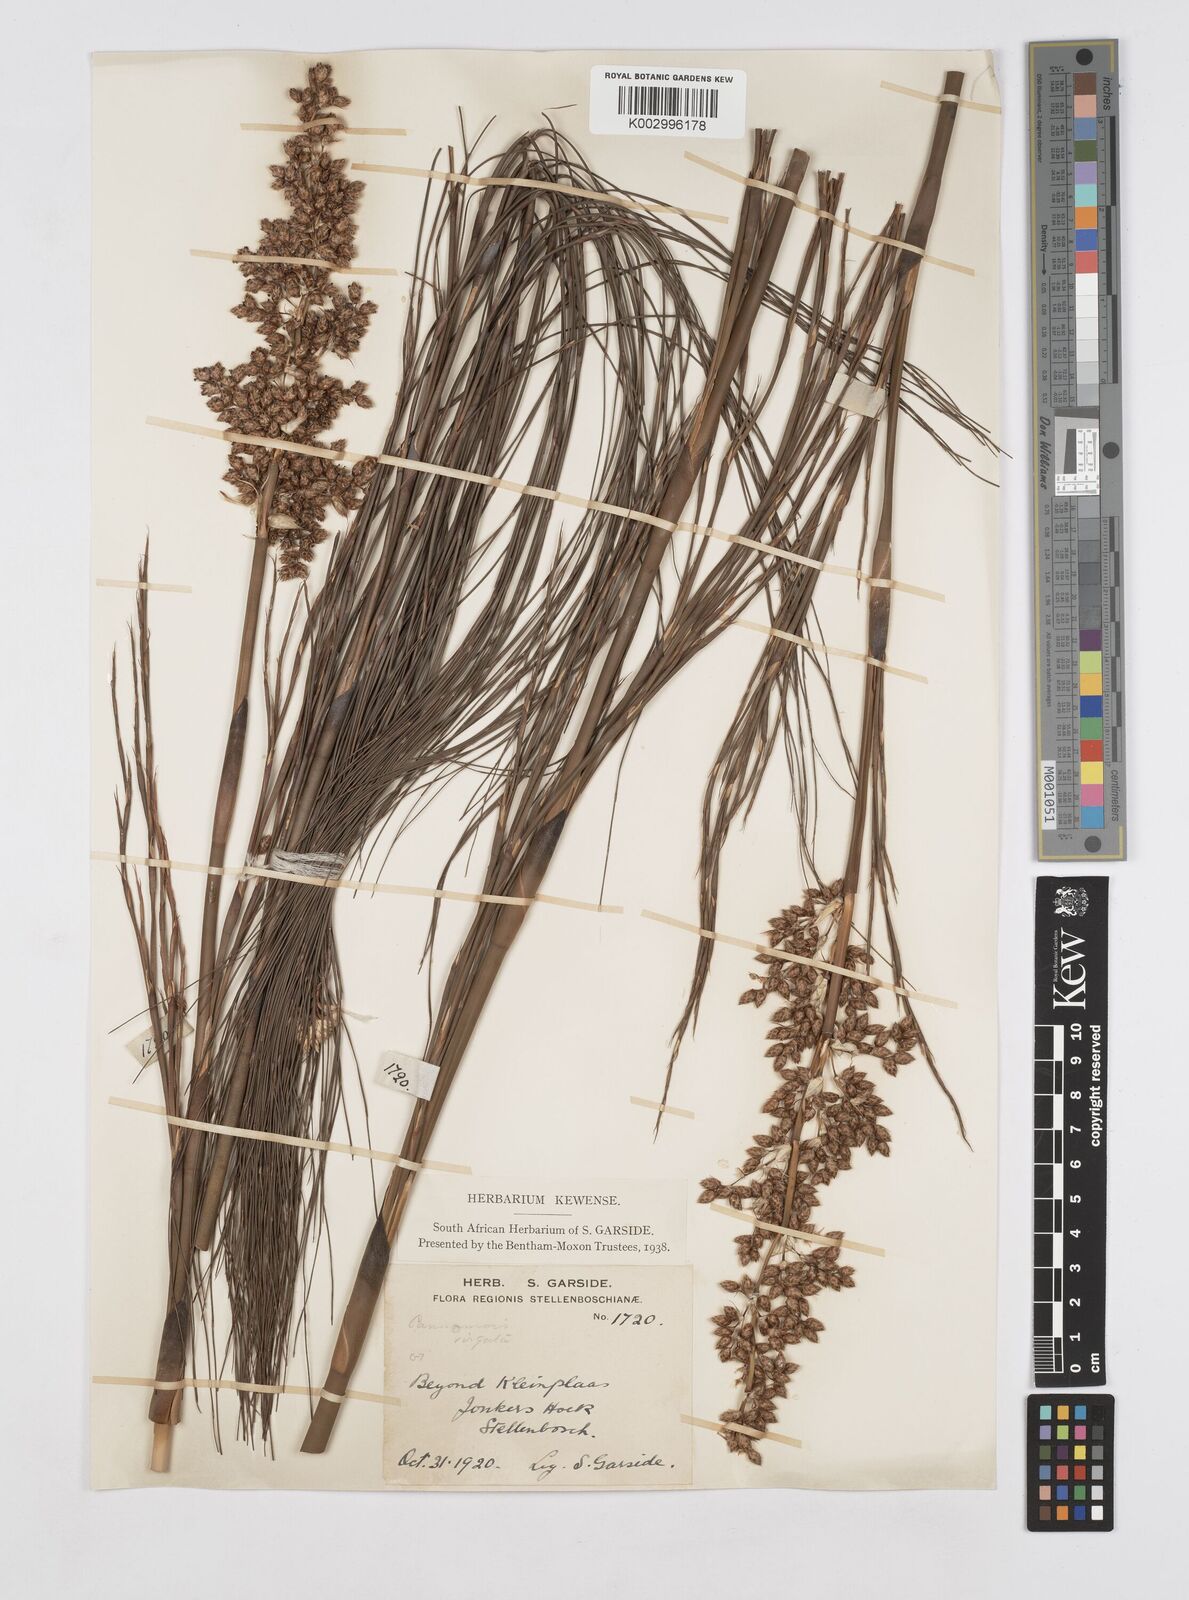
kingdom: Plantae
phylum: Tracheophyta
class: Liliopsida
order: Poales
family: Restionaceae
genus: Cannomois
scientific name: Cannomois virgata
